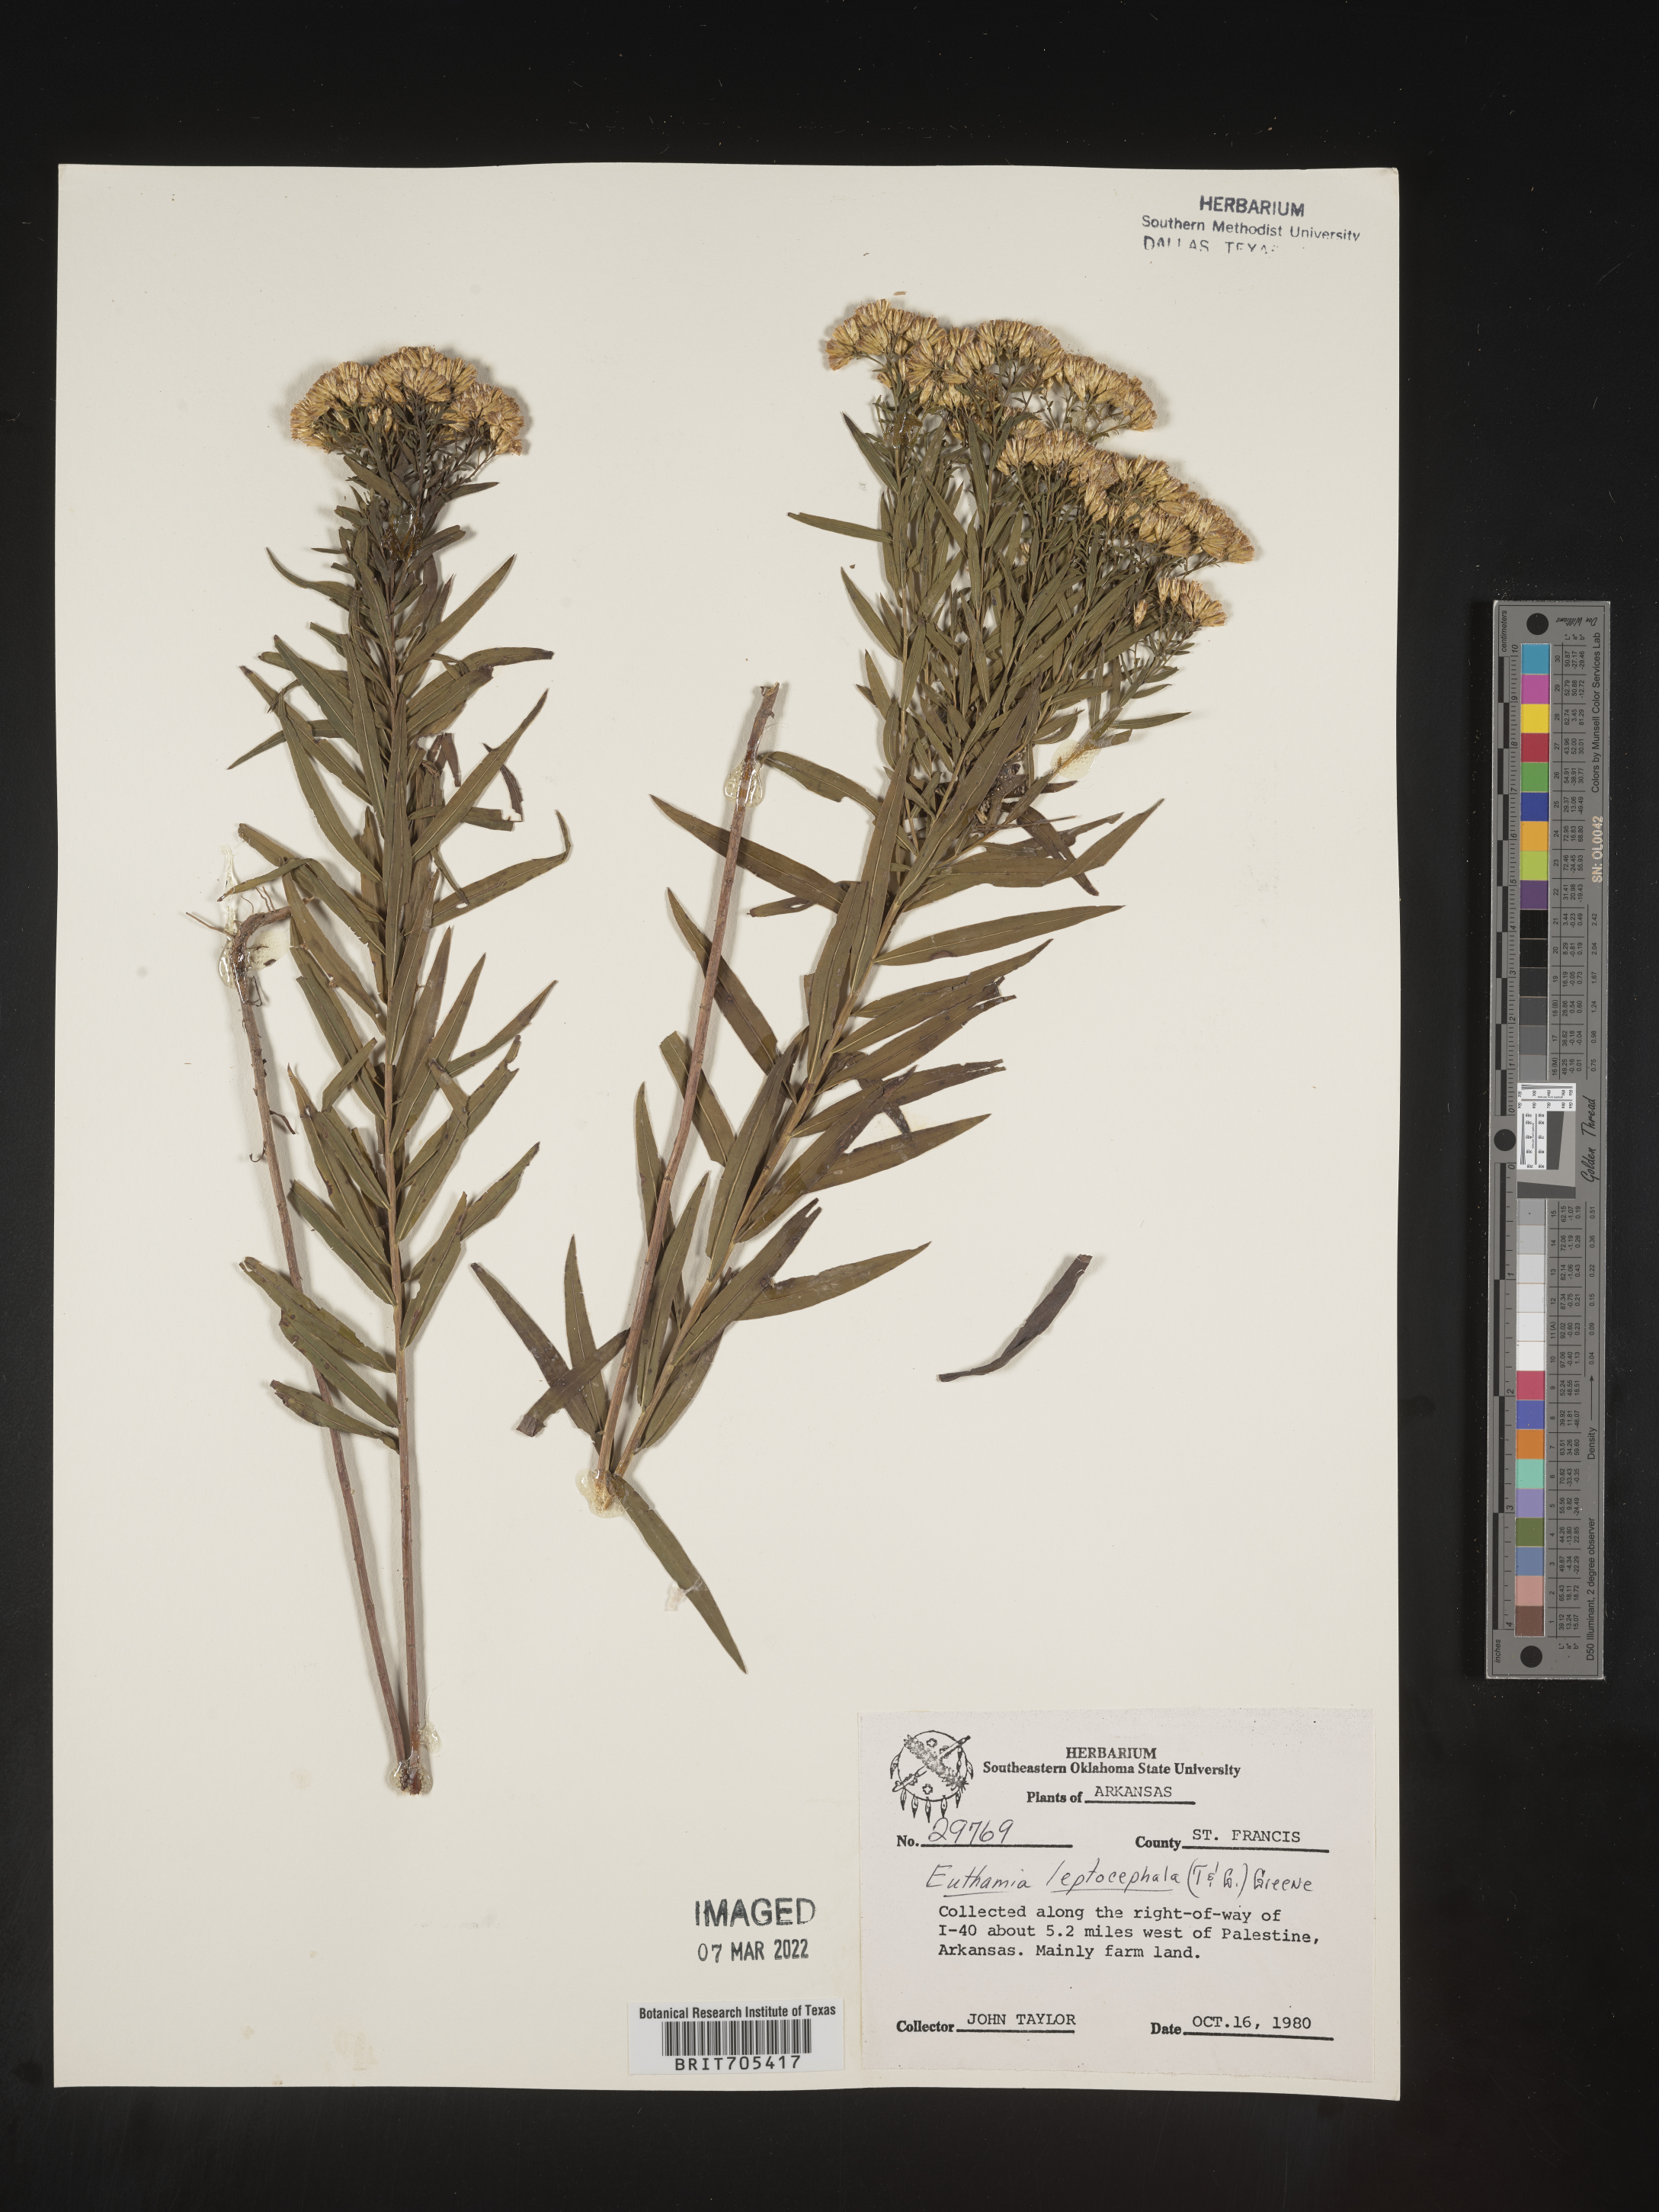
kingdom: Plantae
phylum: Tracheophyta
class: Magnoliopsida
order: Asterales
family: Asteraceae
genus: Euthamia
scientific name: Euthamia leptocephala
